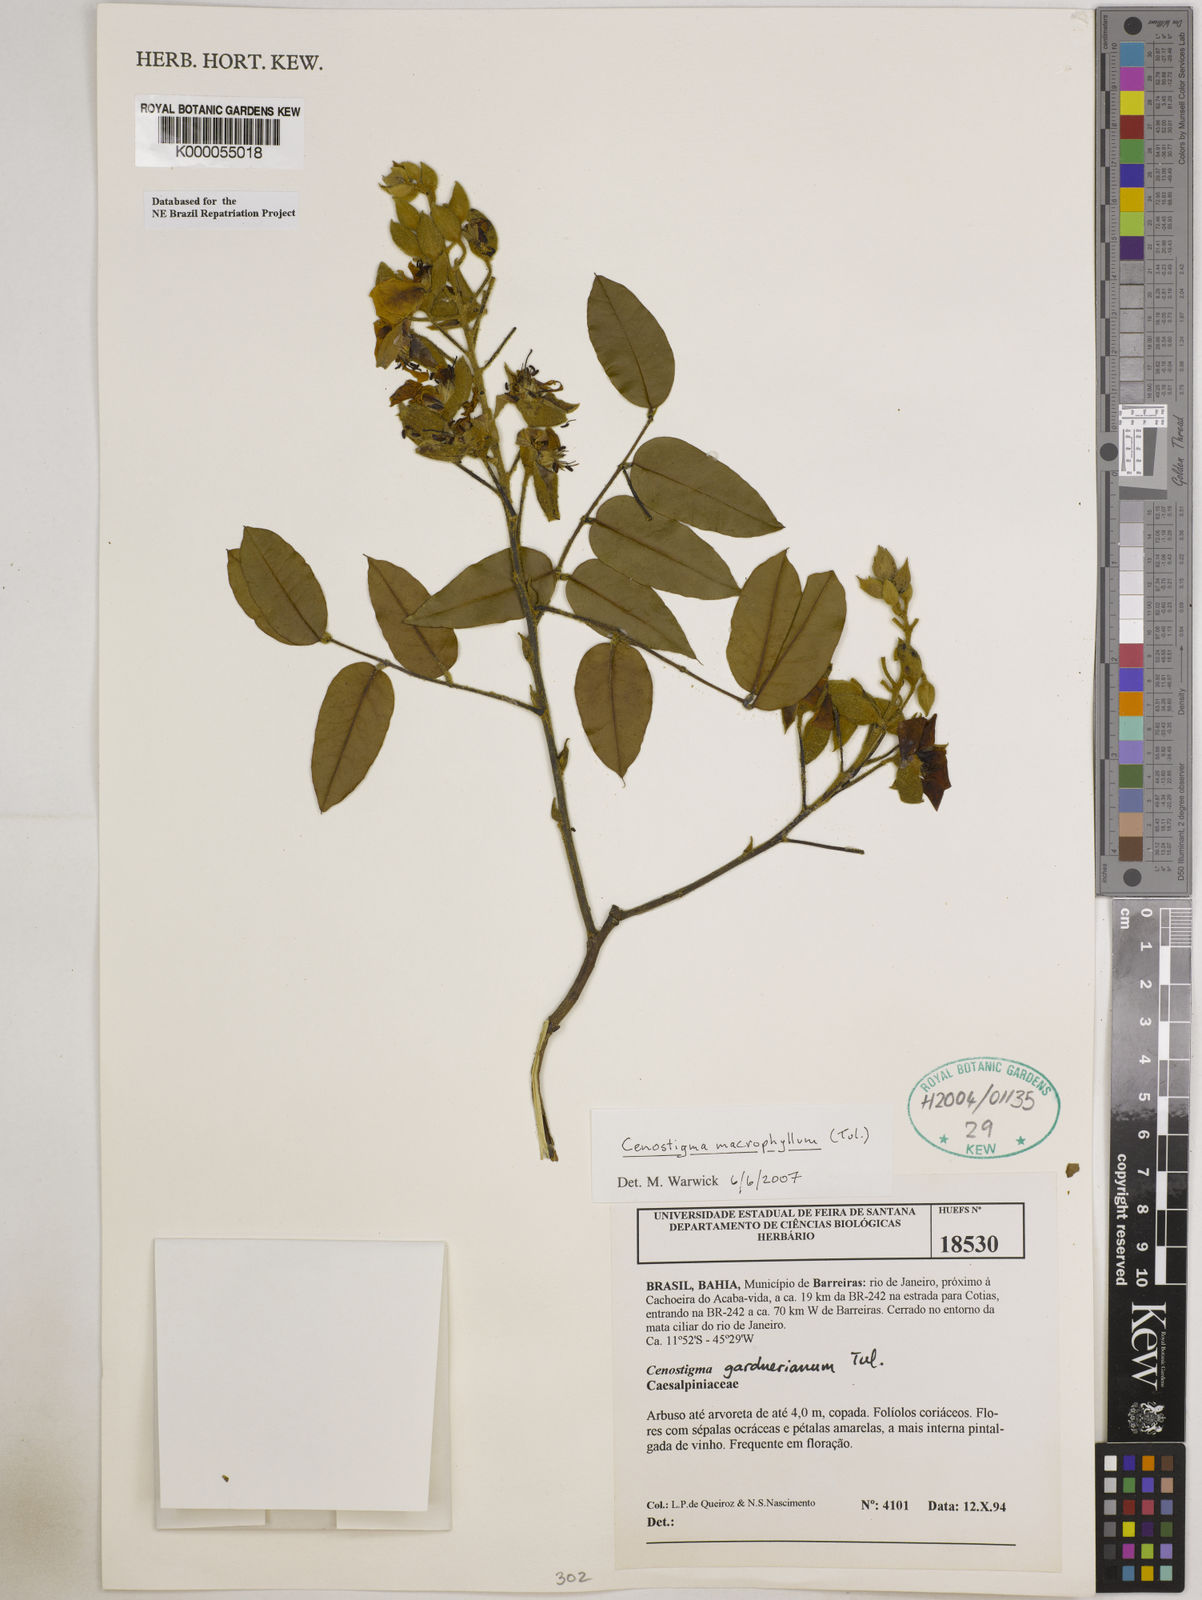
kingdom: Plantae
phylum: Tracheophyta
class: Magnoliopsida
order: Fabales
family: Fabaceae
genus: Cenostigma
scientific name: Cenostigma macrophyllum
